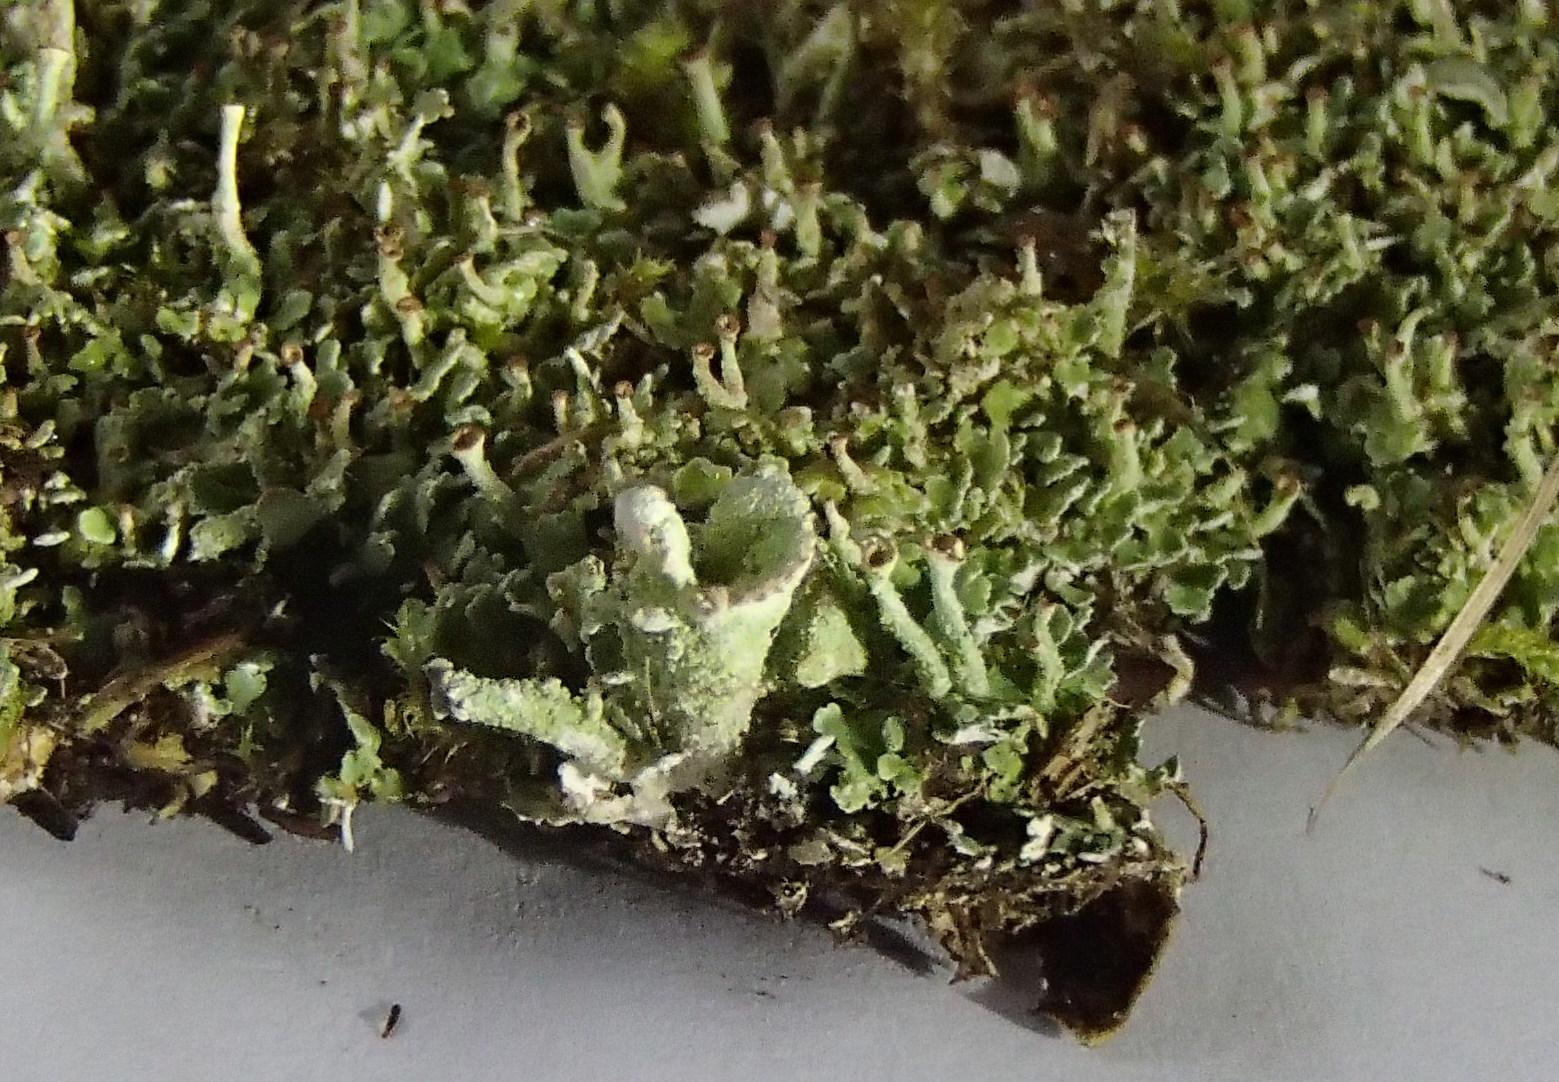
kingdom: Fungi
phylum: Ascomycota
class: Lecanoromycetes
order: Lecanorales
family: Cladoniaceae
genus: Cladonia
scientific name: Cladonia
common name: brungrøn bægerlav
